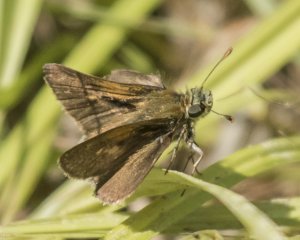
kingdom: Animalia
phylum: Arthropoda
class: Insecta
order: Lepidoptera
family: Hesperiidae
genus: Euphyes
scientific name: Euphyes vestris
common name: Dun Skipper
